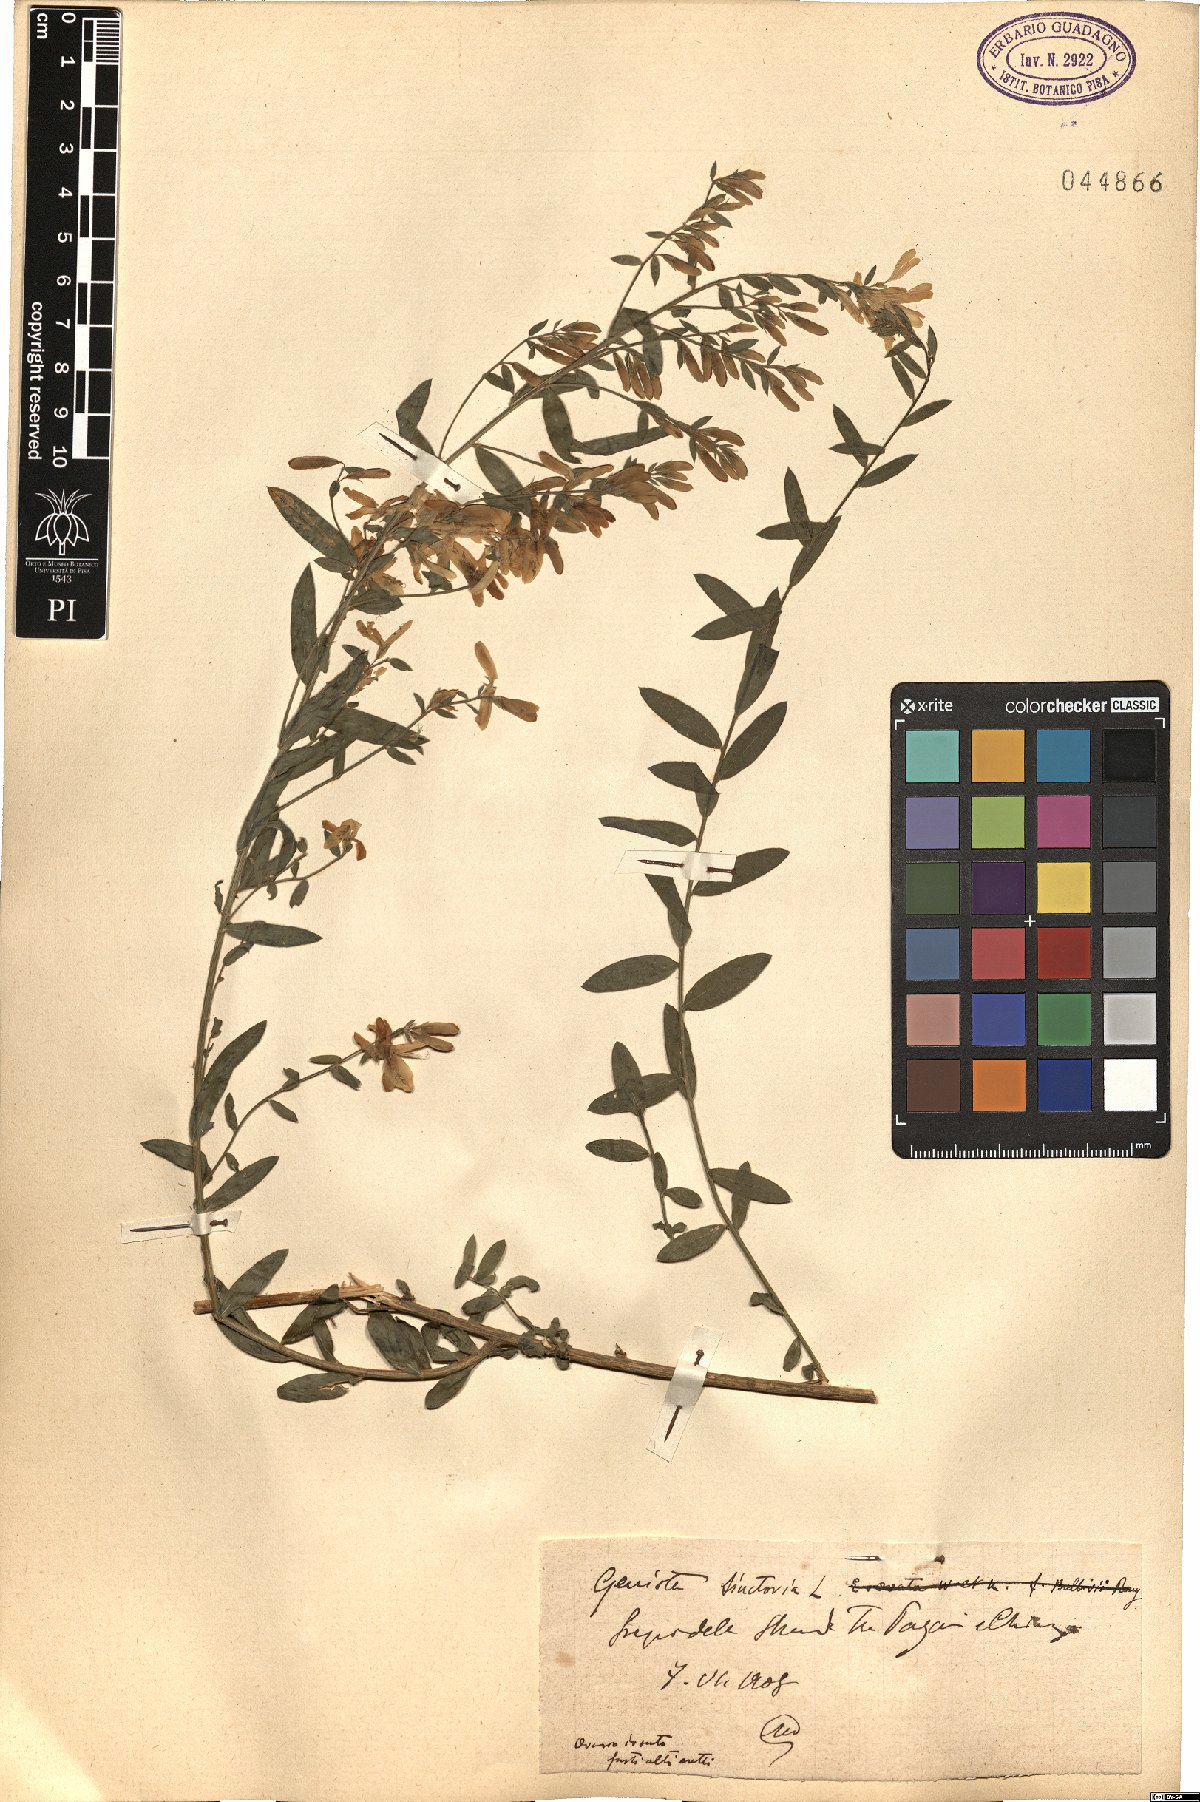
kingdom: Plantae
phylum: Tracheophyta
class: Magnoliopsida
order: Fabales
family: Fabaceae
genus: Genista
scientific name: Genista tinctoria
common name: Dyer's greenweed
